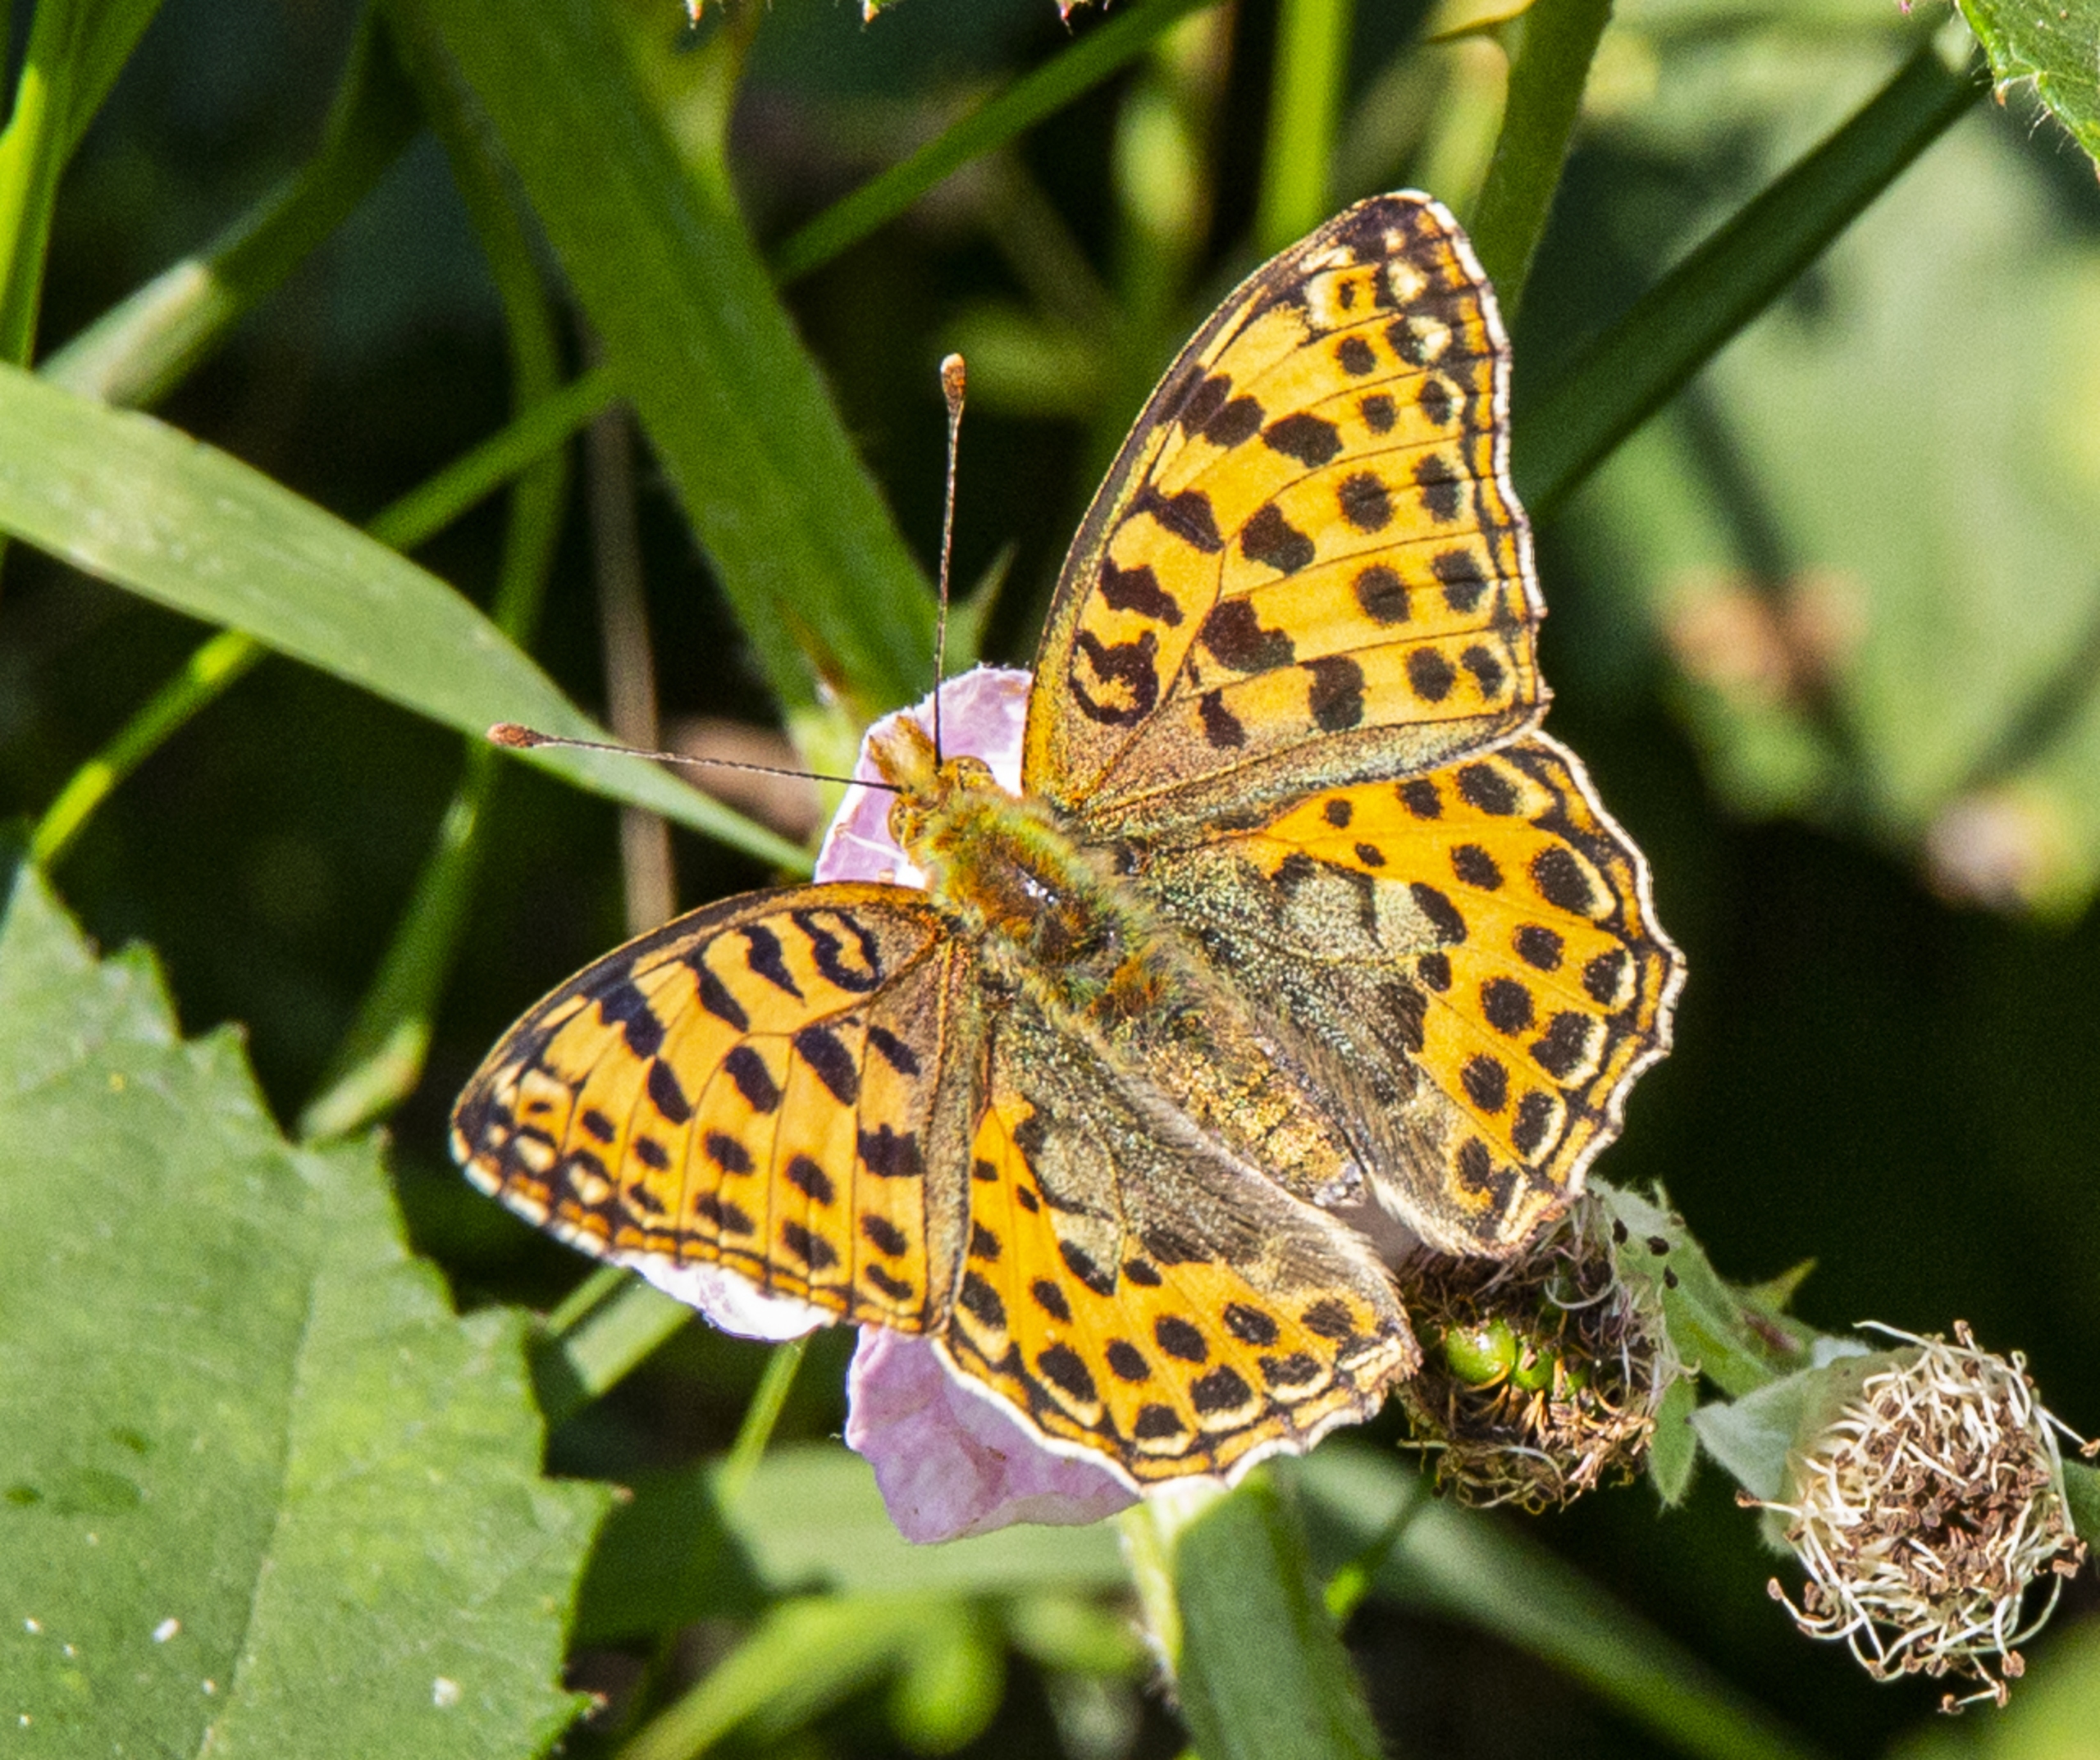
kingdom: Animalia
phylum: Arthropoda
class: Insecta
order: Lepidoptera
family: Nymphalidae
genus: Issoria
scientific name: Issoria lathonia
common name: Storplettet perlemorsommerfugl
